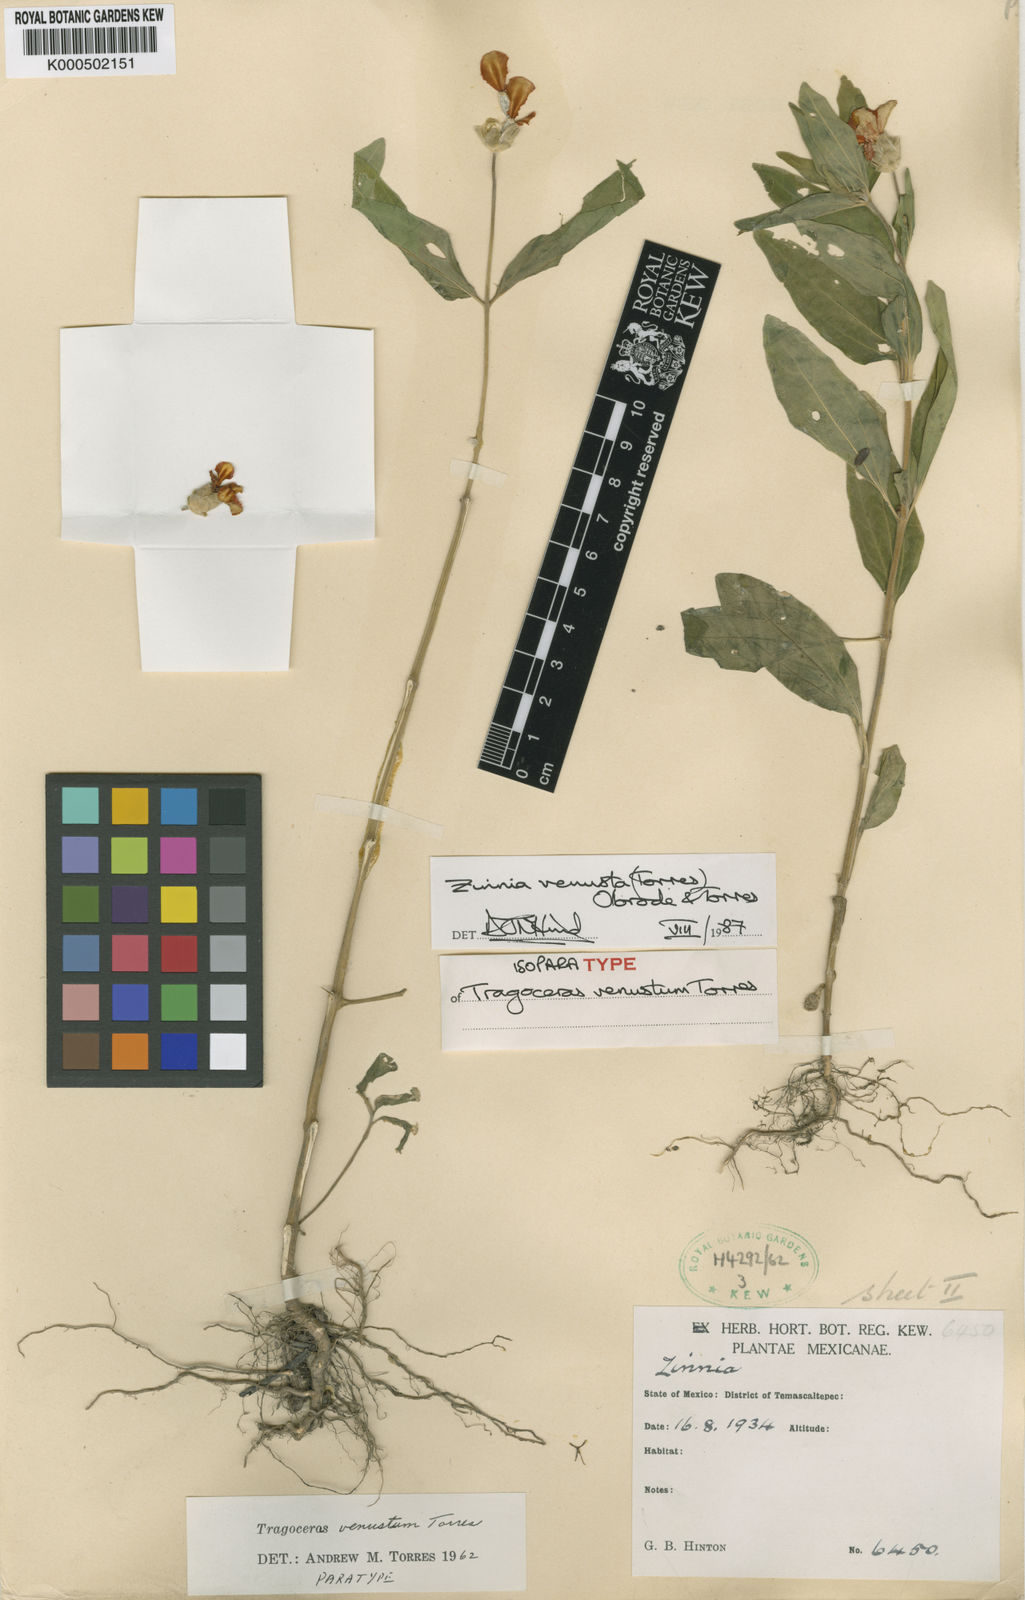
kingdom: Plantae
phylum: Tracheophyta
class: Magnoliopsida
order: Asterales
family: Asteraceae
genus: Zinnia
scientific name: Zinnia venusta
